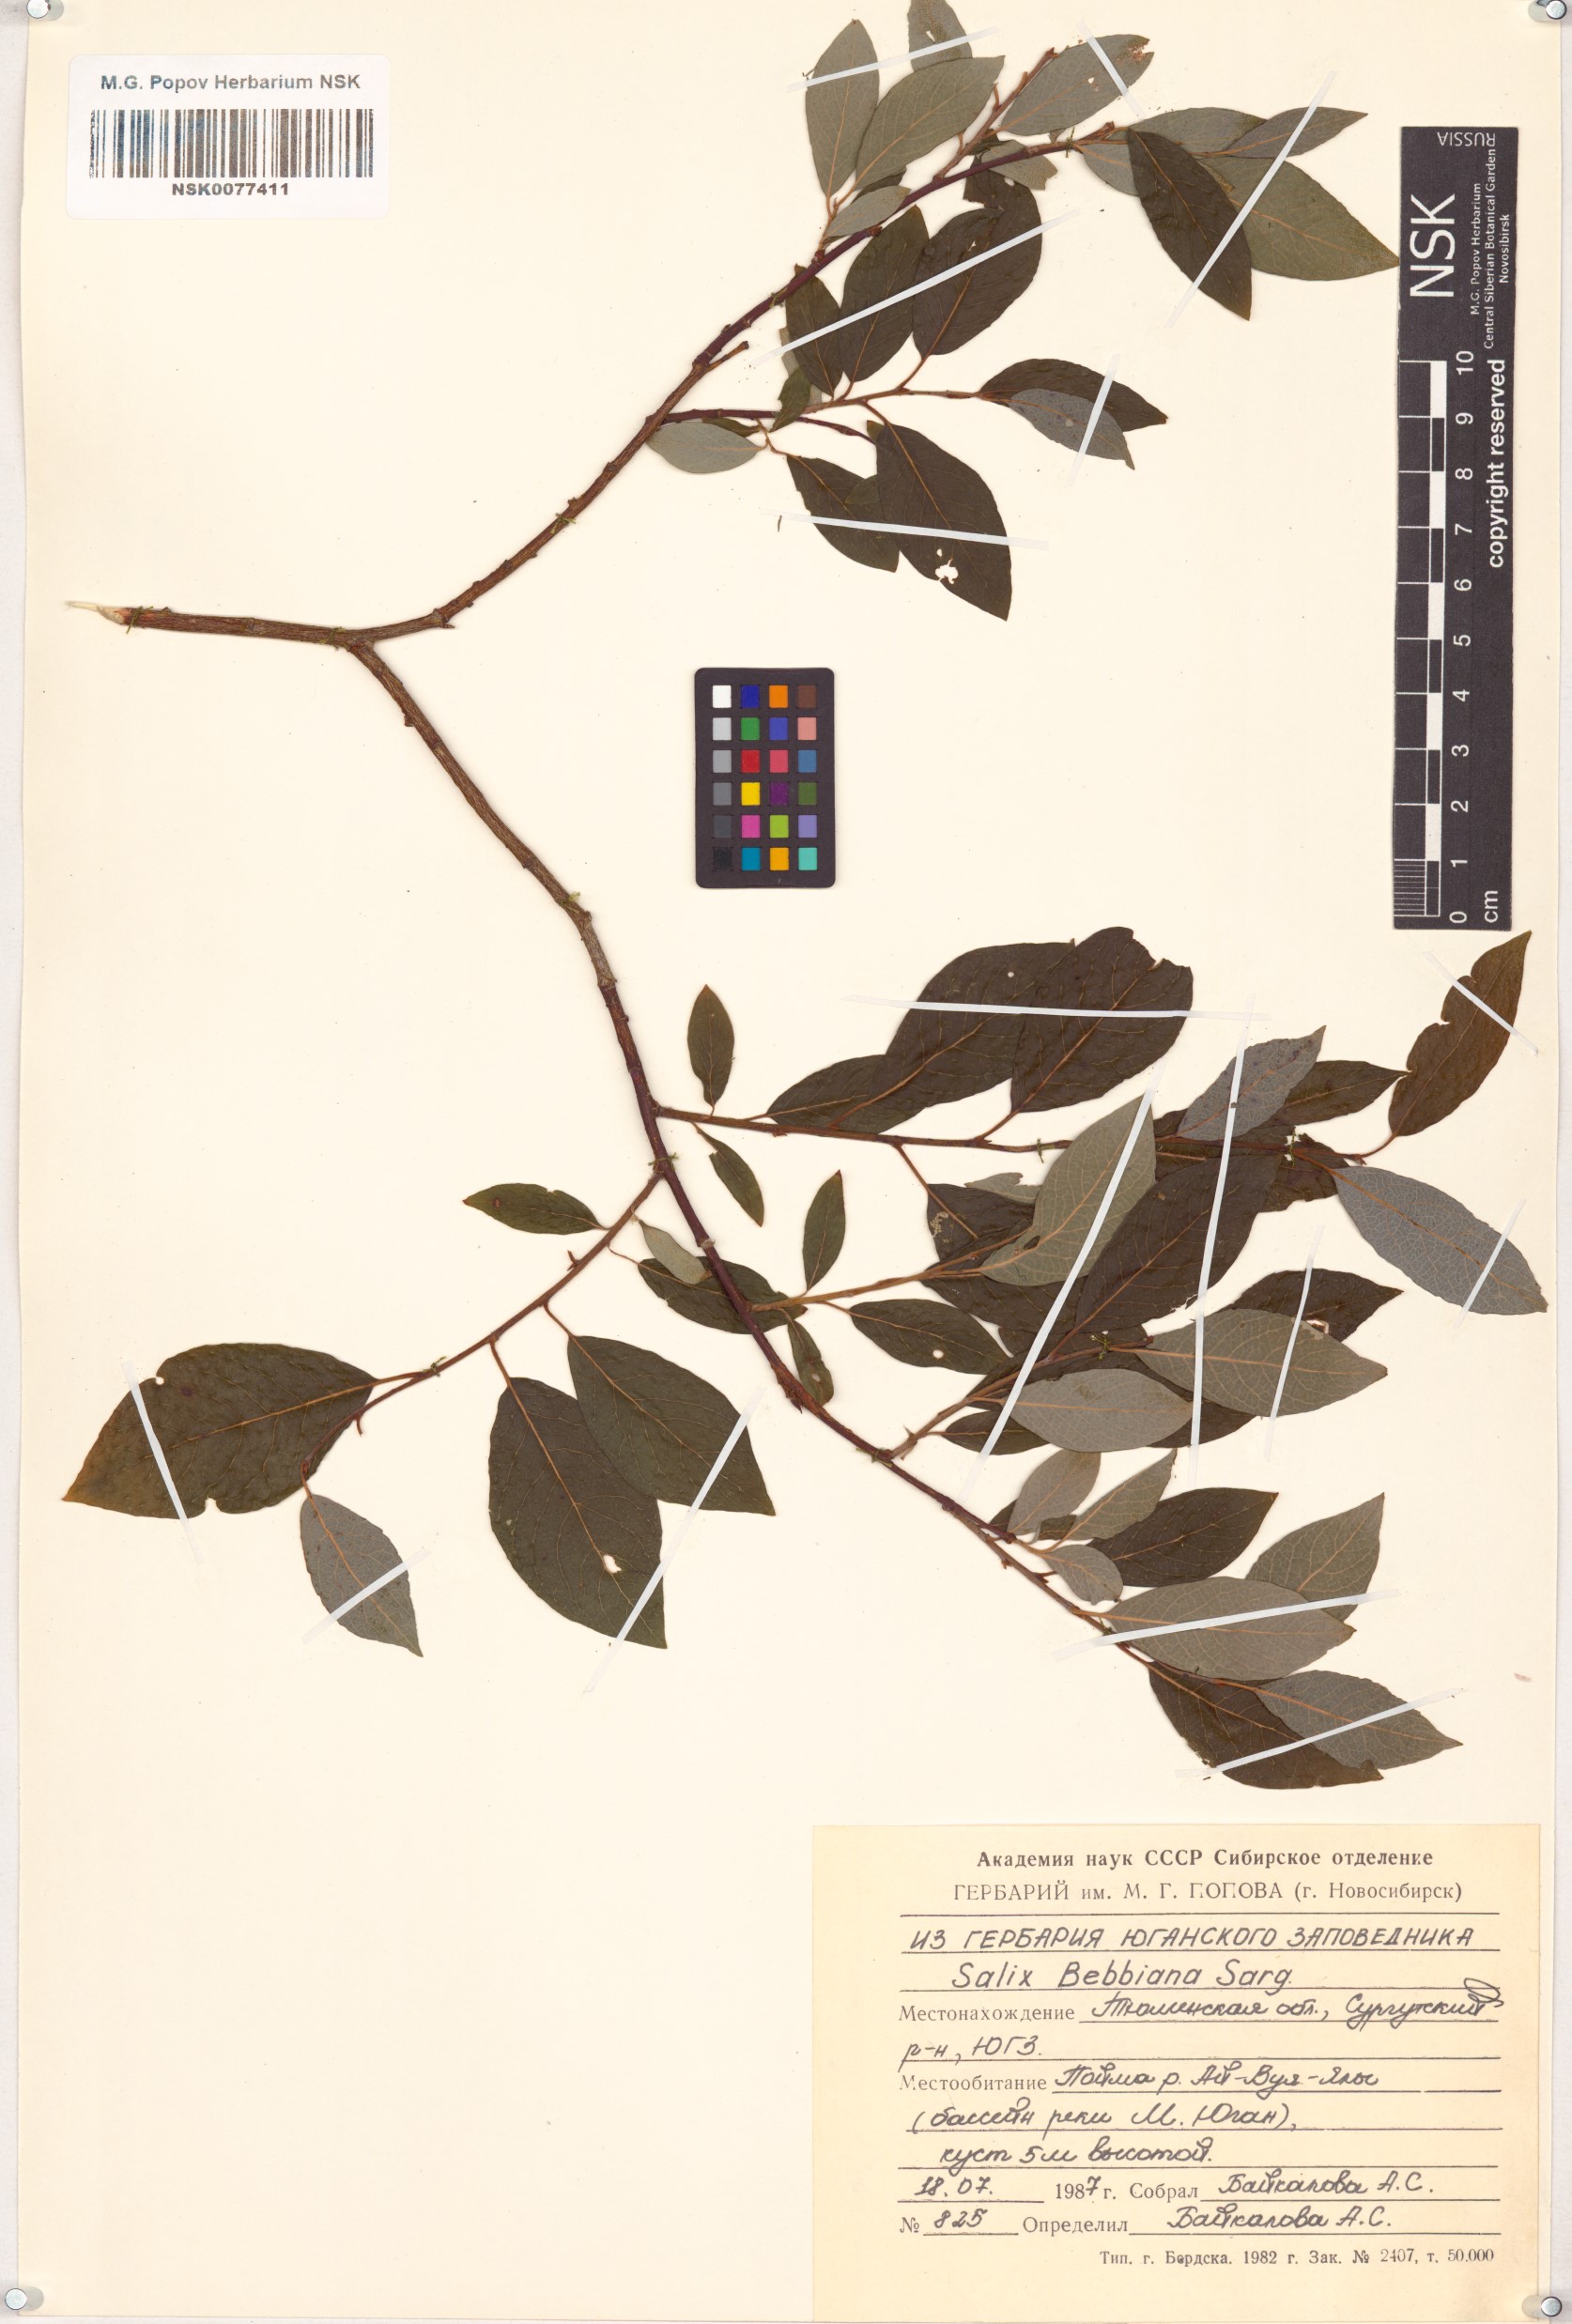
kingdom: Plantae
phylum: Tracheophyta
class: Magnoliopsida
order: Malpighiales
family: Salicaceae
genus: Salix
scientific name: Salix bebbiana
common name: Bebb's willow
